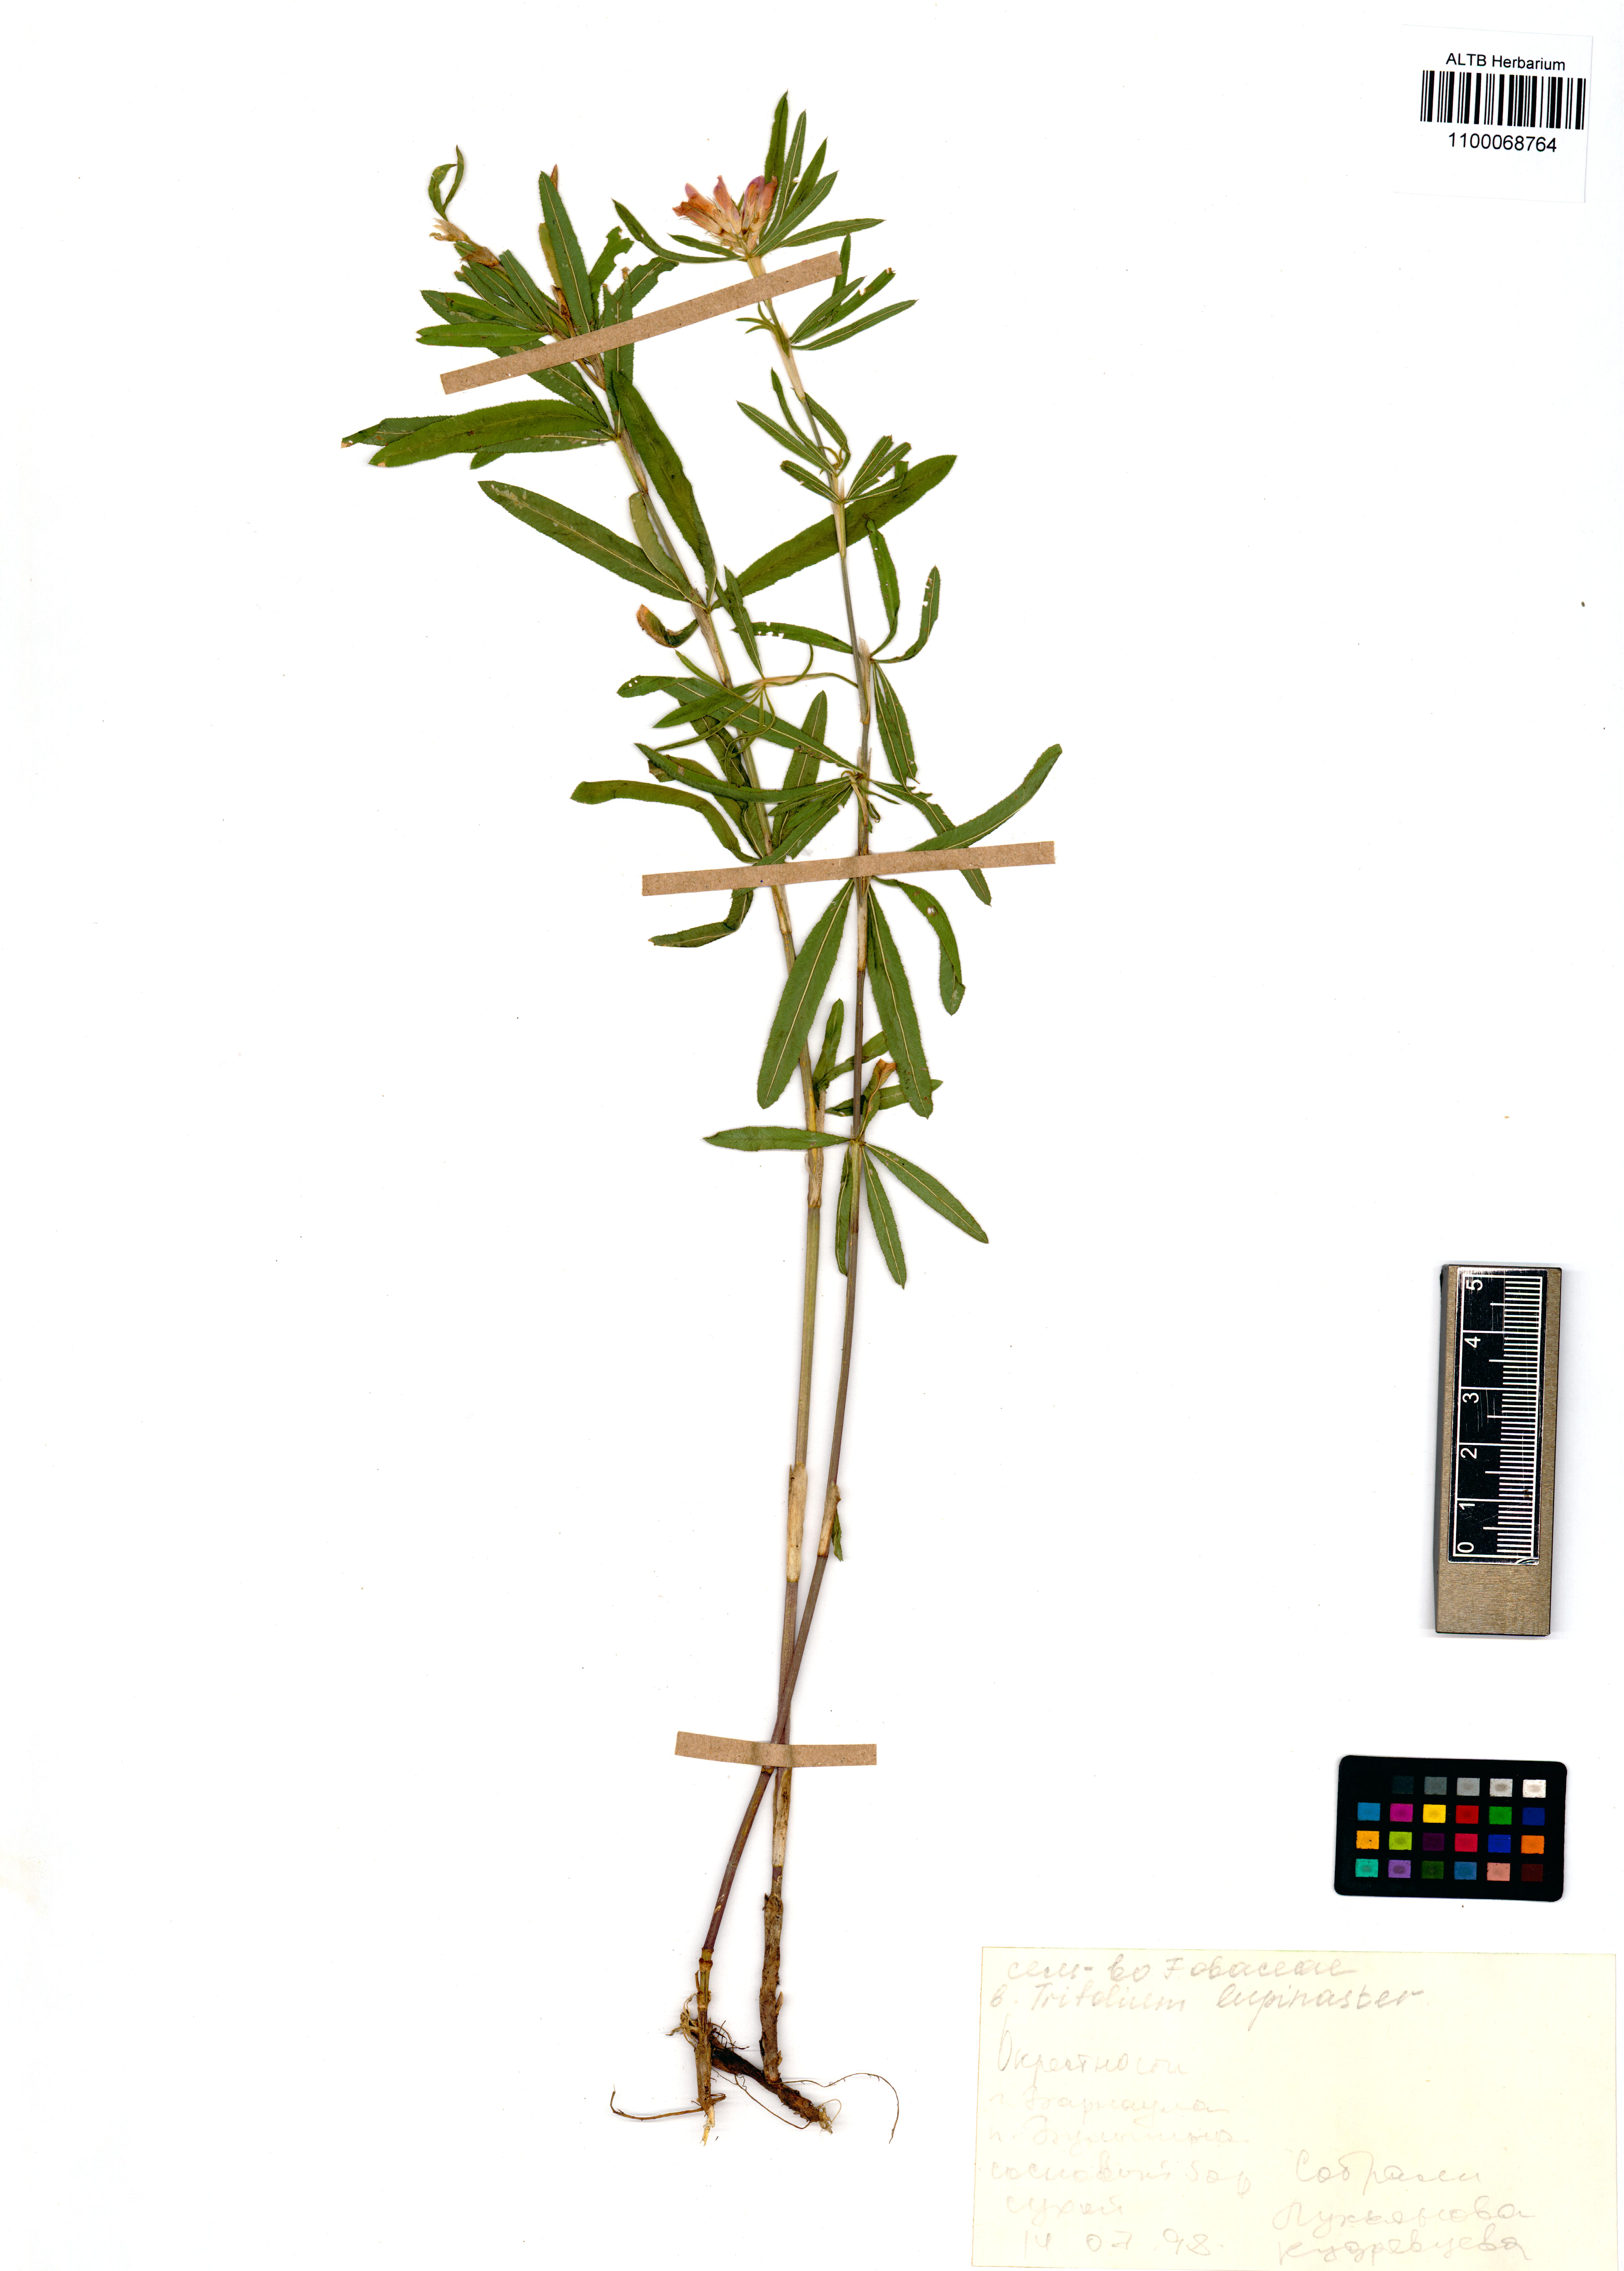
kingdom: Plantae
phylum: Tracheophyta
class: Magnoliopsida
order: Fabales
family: Fabaceae
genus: Trifolium
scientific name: Trifolium lupinaster
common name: Lupine clover
